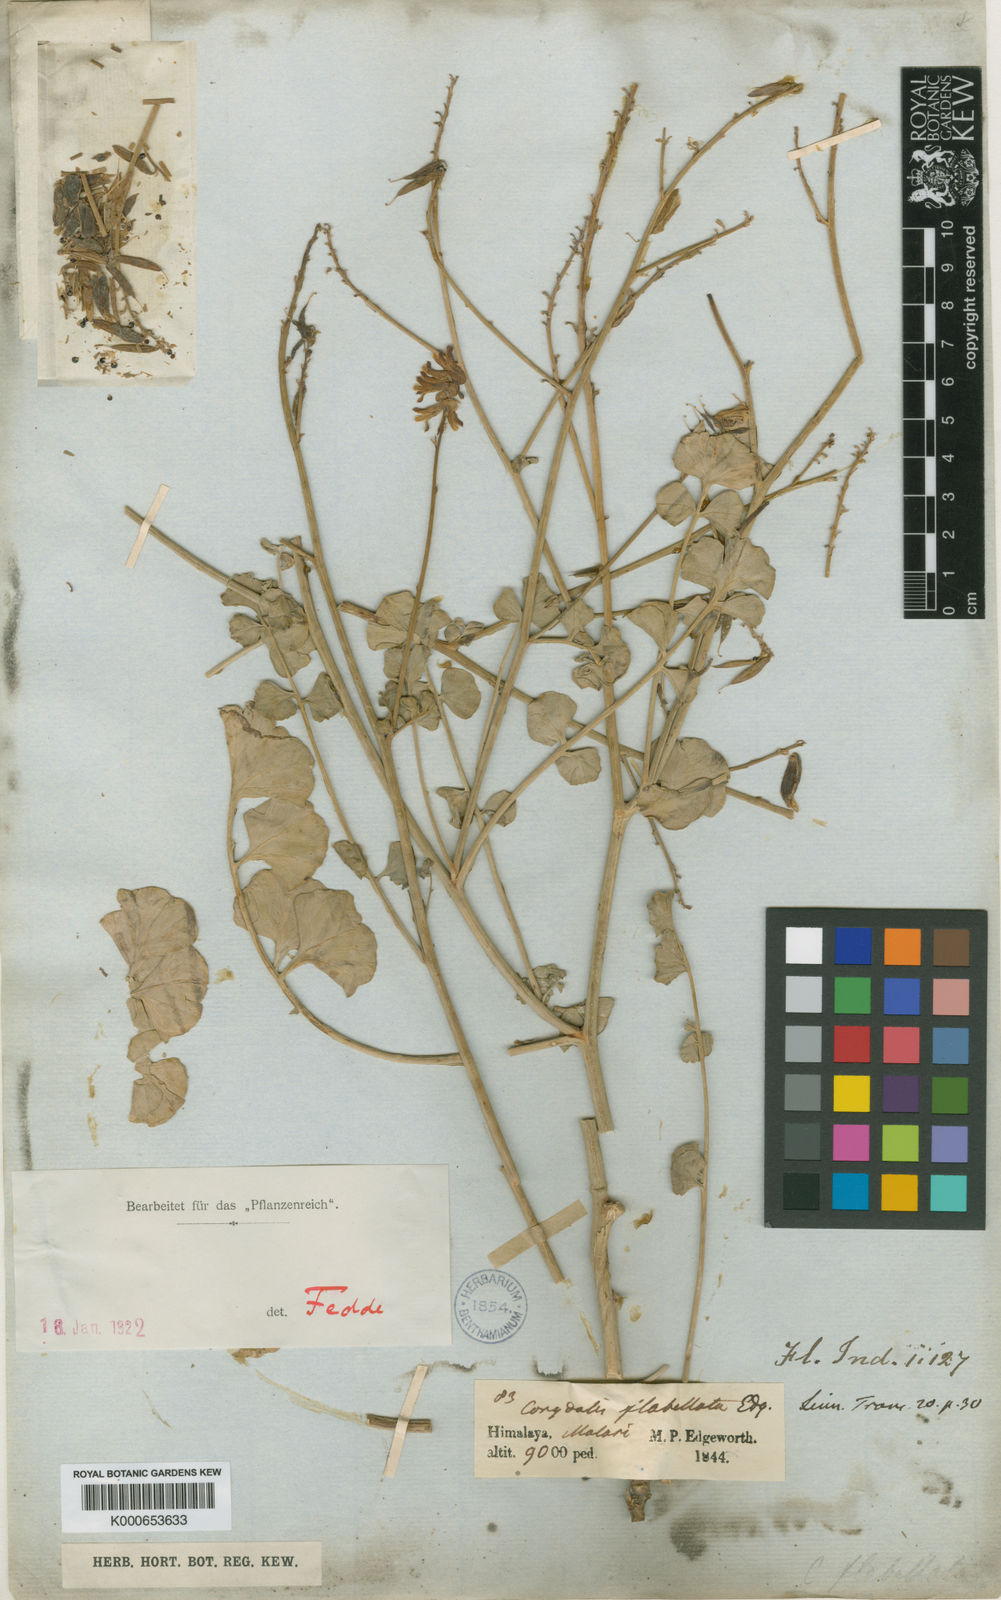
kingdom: Plantae
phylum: Tracheophyta
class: Magnoliopsida
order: Ranunculales
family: Papaveraceae
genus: Corydalis
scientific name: Corydalis flabellata
